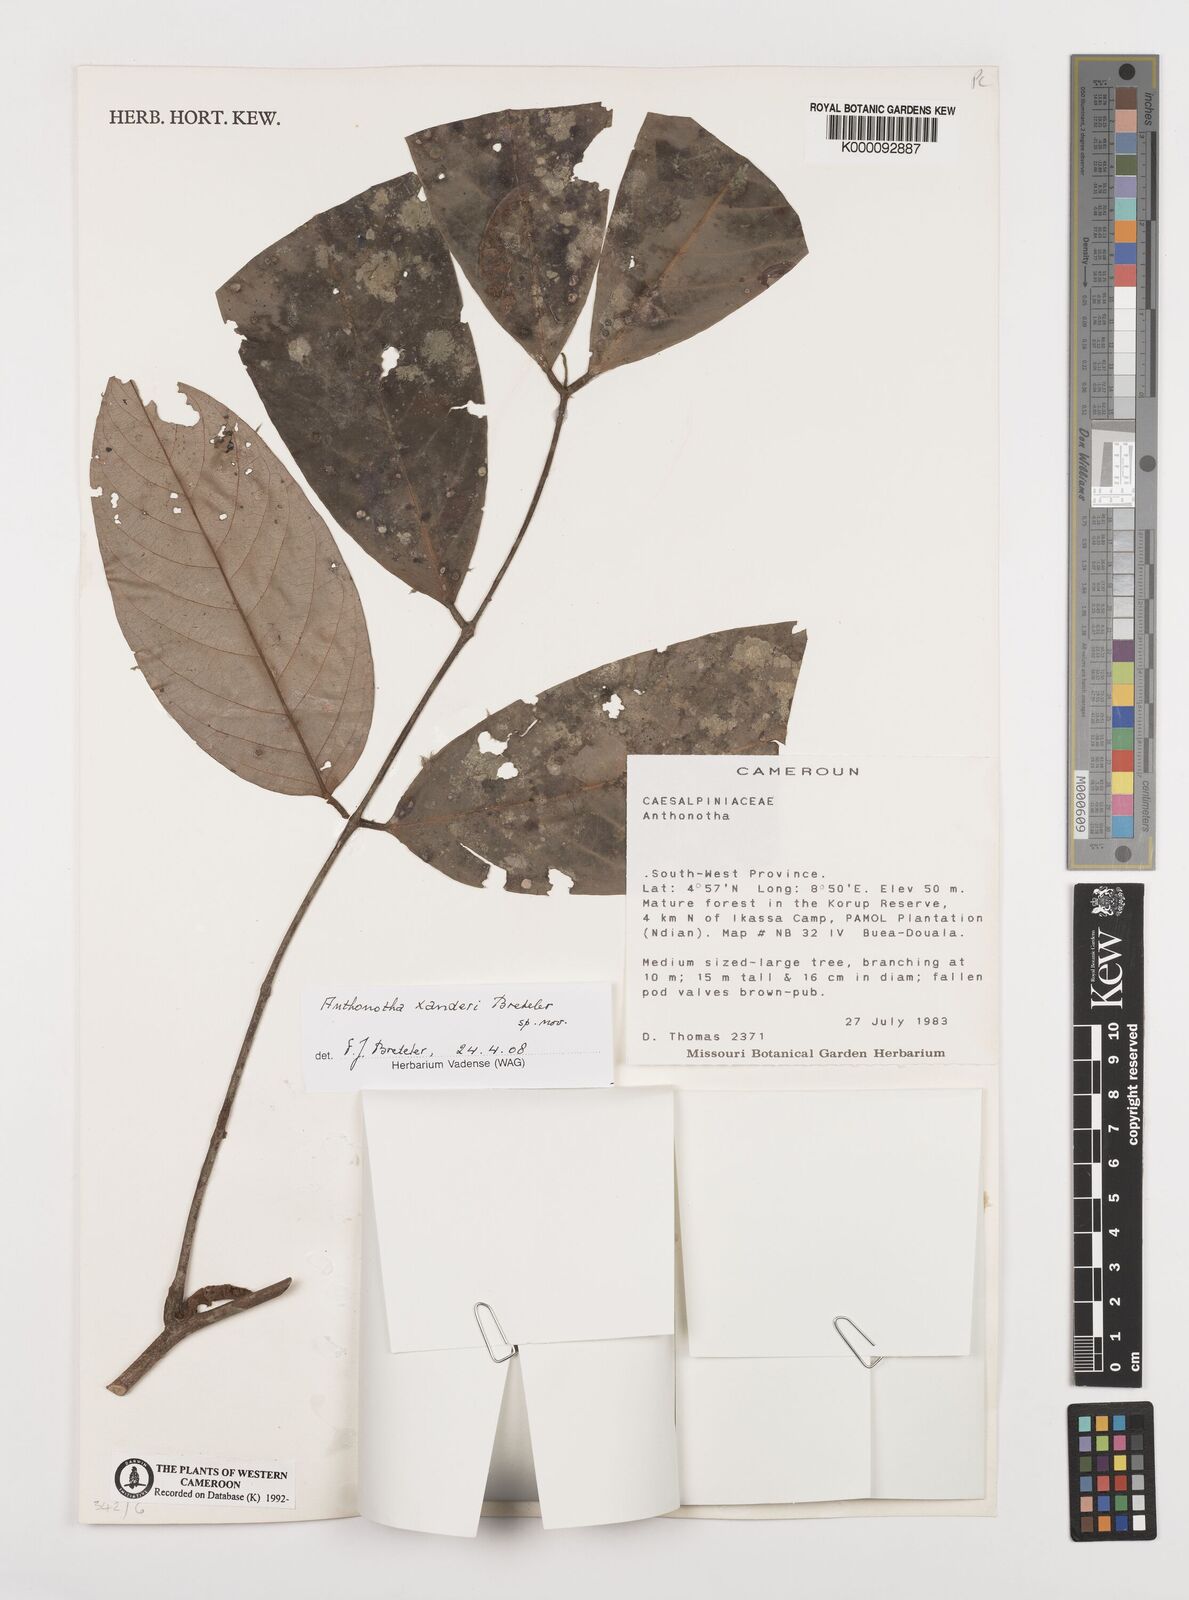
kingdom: Plantae
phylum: Tracheophyta
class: Magnoliopsida
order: Fabales
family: Fabaceae
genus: Anthonotha
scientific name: Anthonotha xanderi
